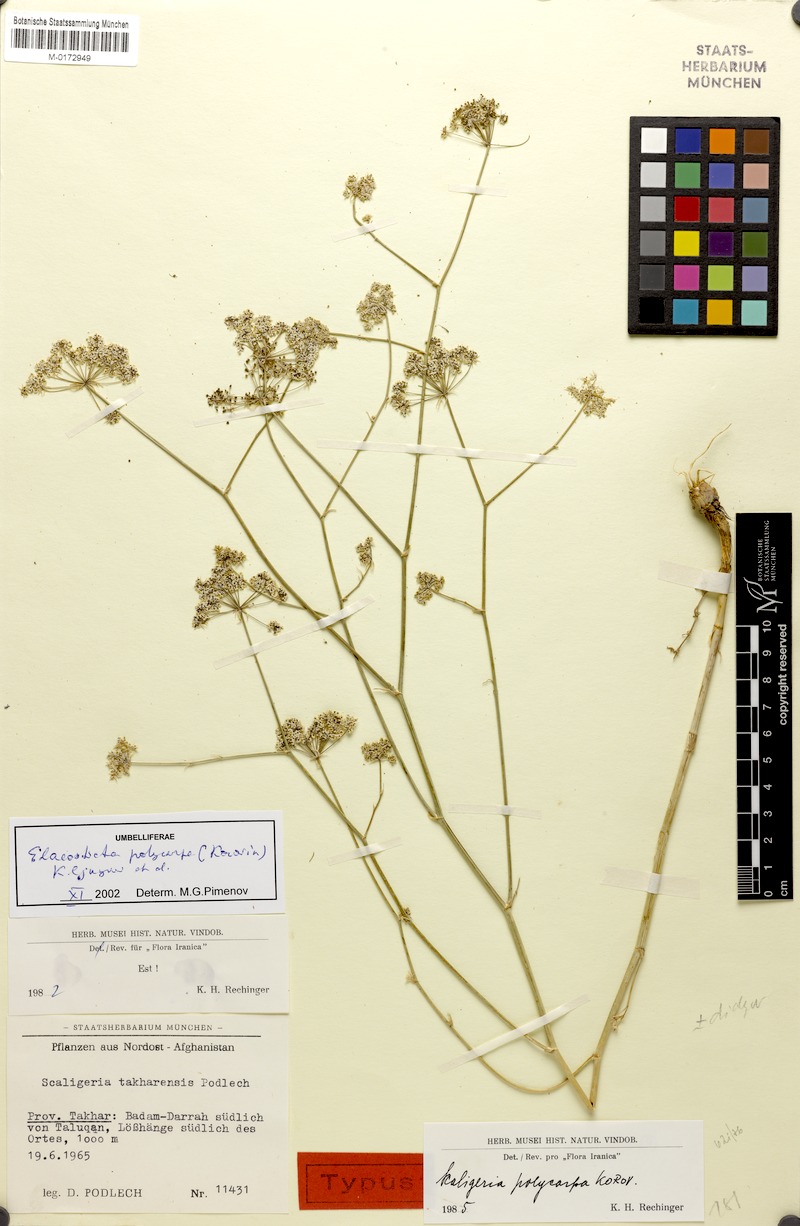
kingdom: Plantae
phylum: Tracheophyta
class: Magnoliopsida
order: Apiales
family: Apiaceae
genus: Scaligeria
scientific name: Scaligeria polycarpa
